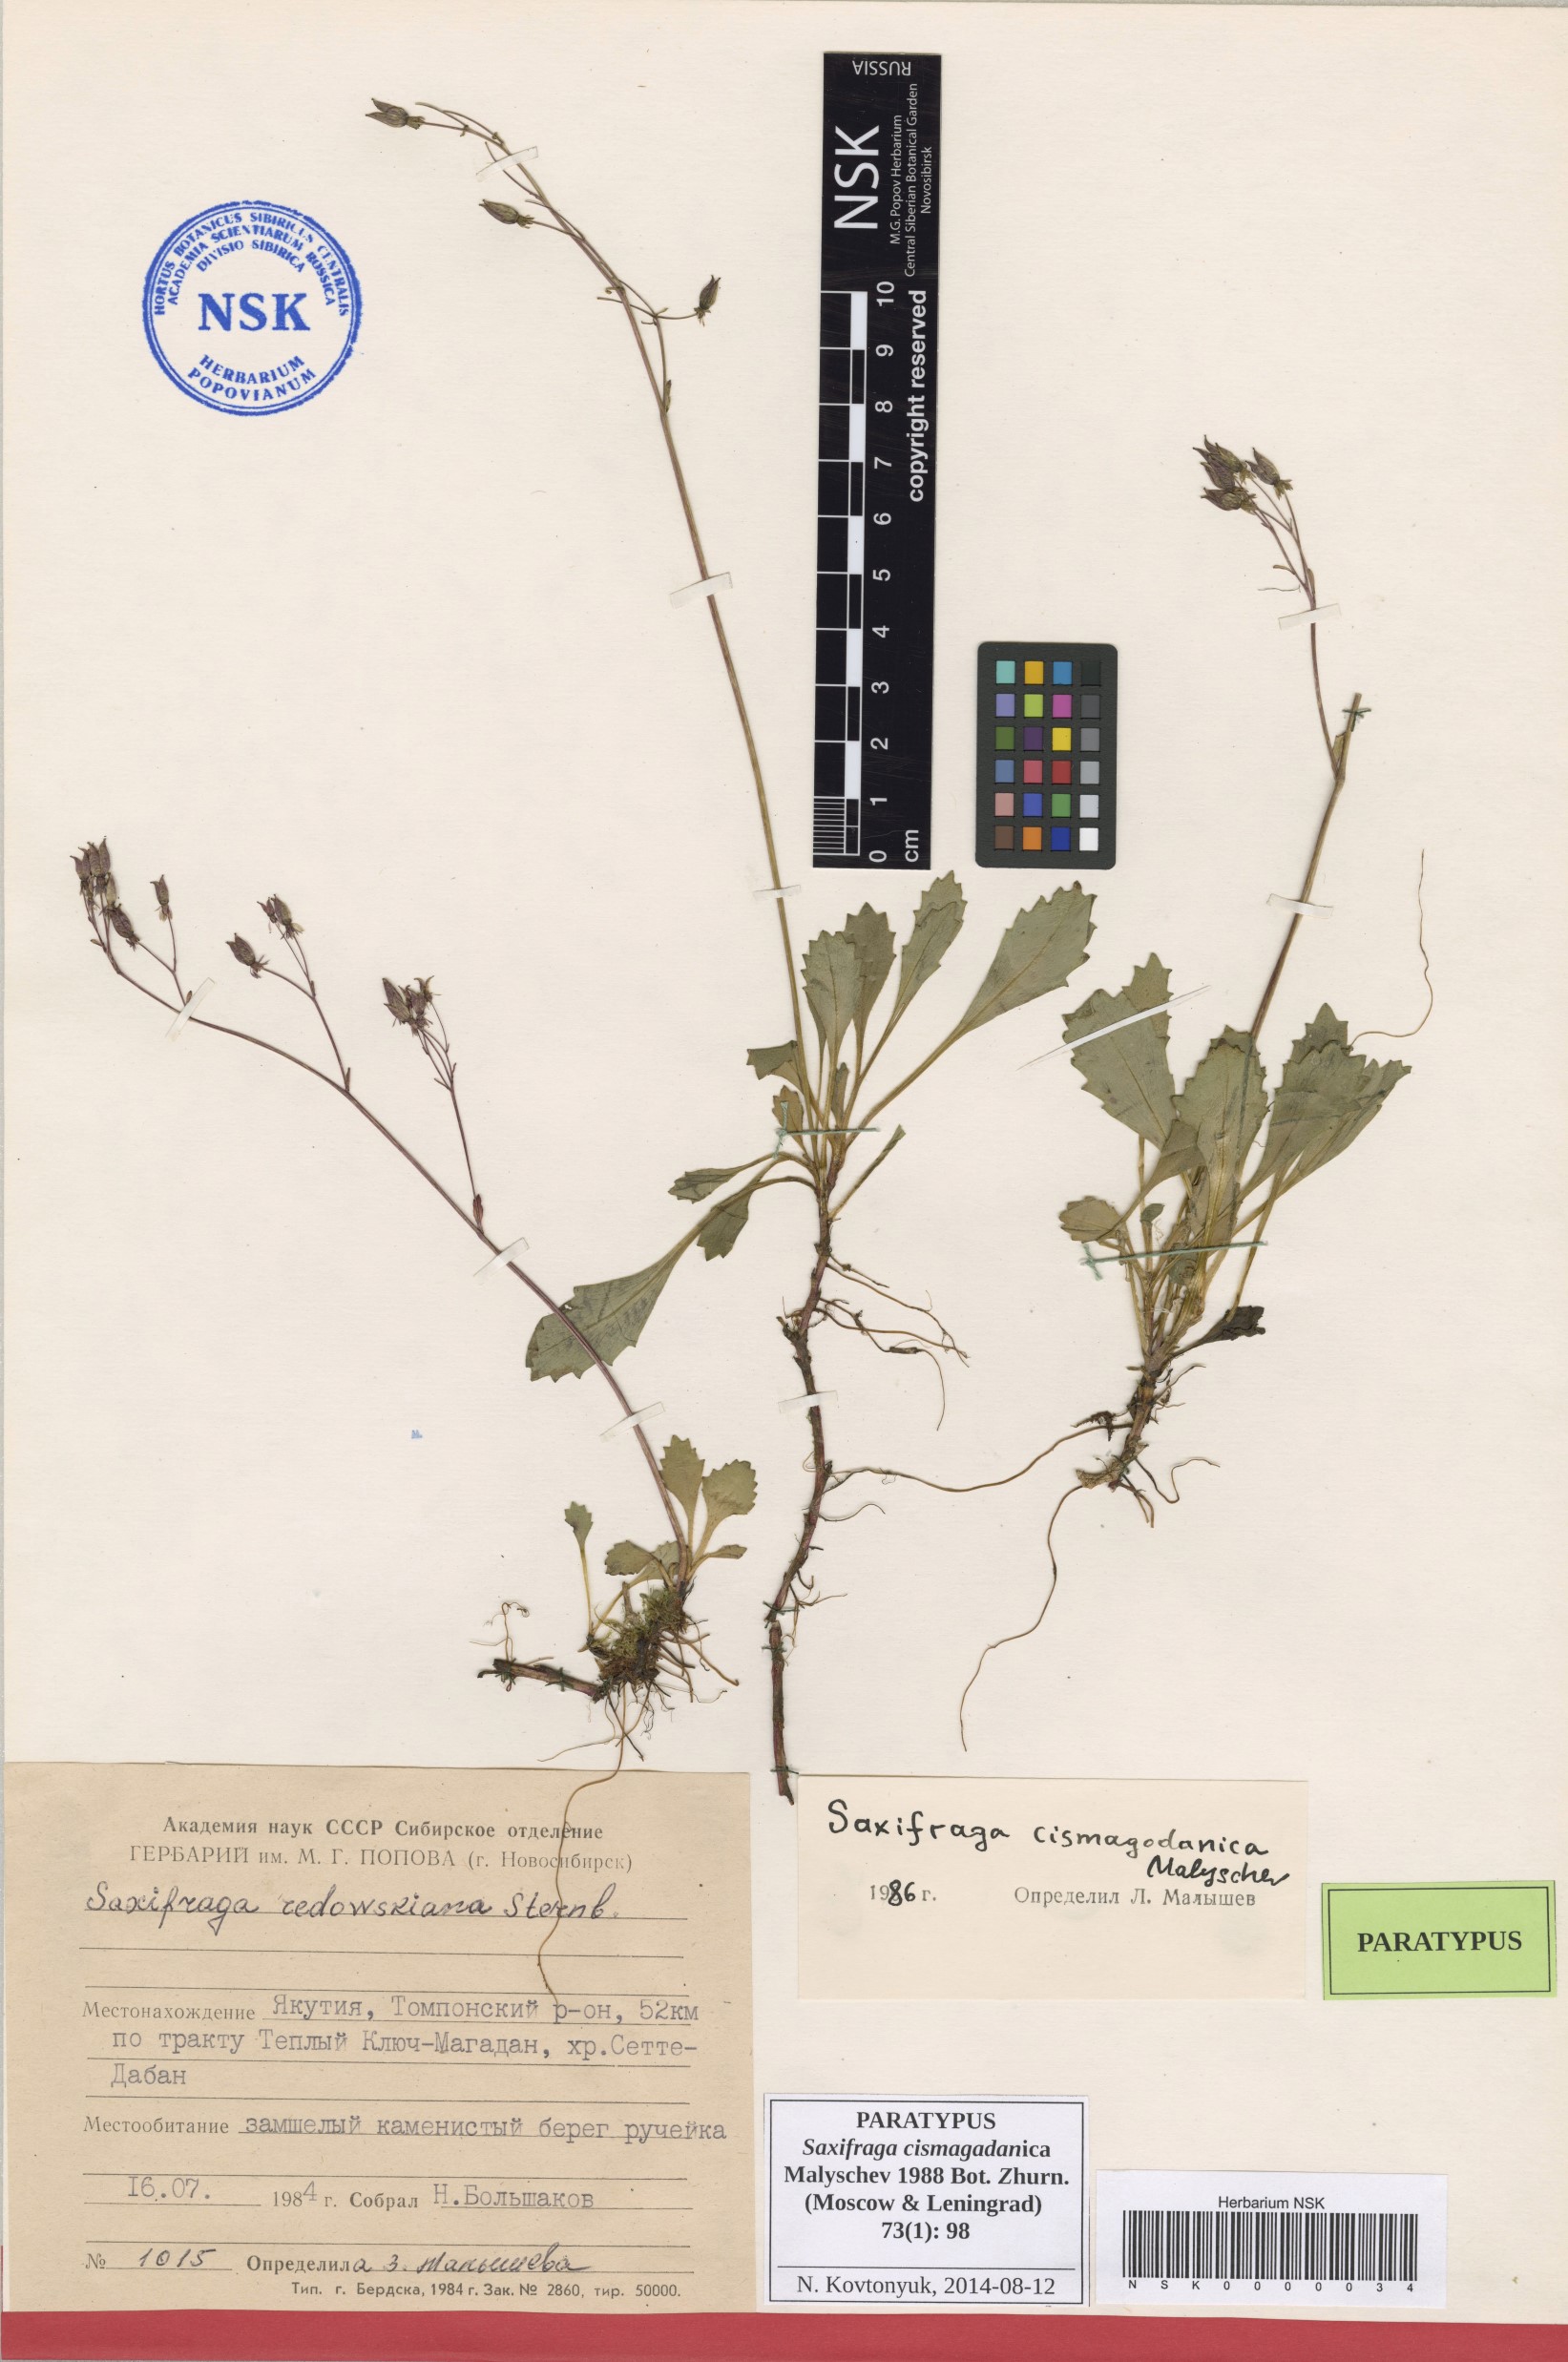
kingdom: Plantae
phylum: Tracheophyta
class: Magnoliopsida
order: Saxifragales
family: Saxifragaceae
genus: Micranthes
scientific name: Micranthes cismagadanica
